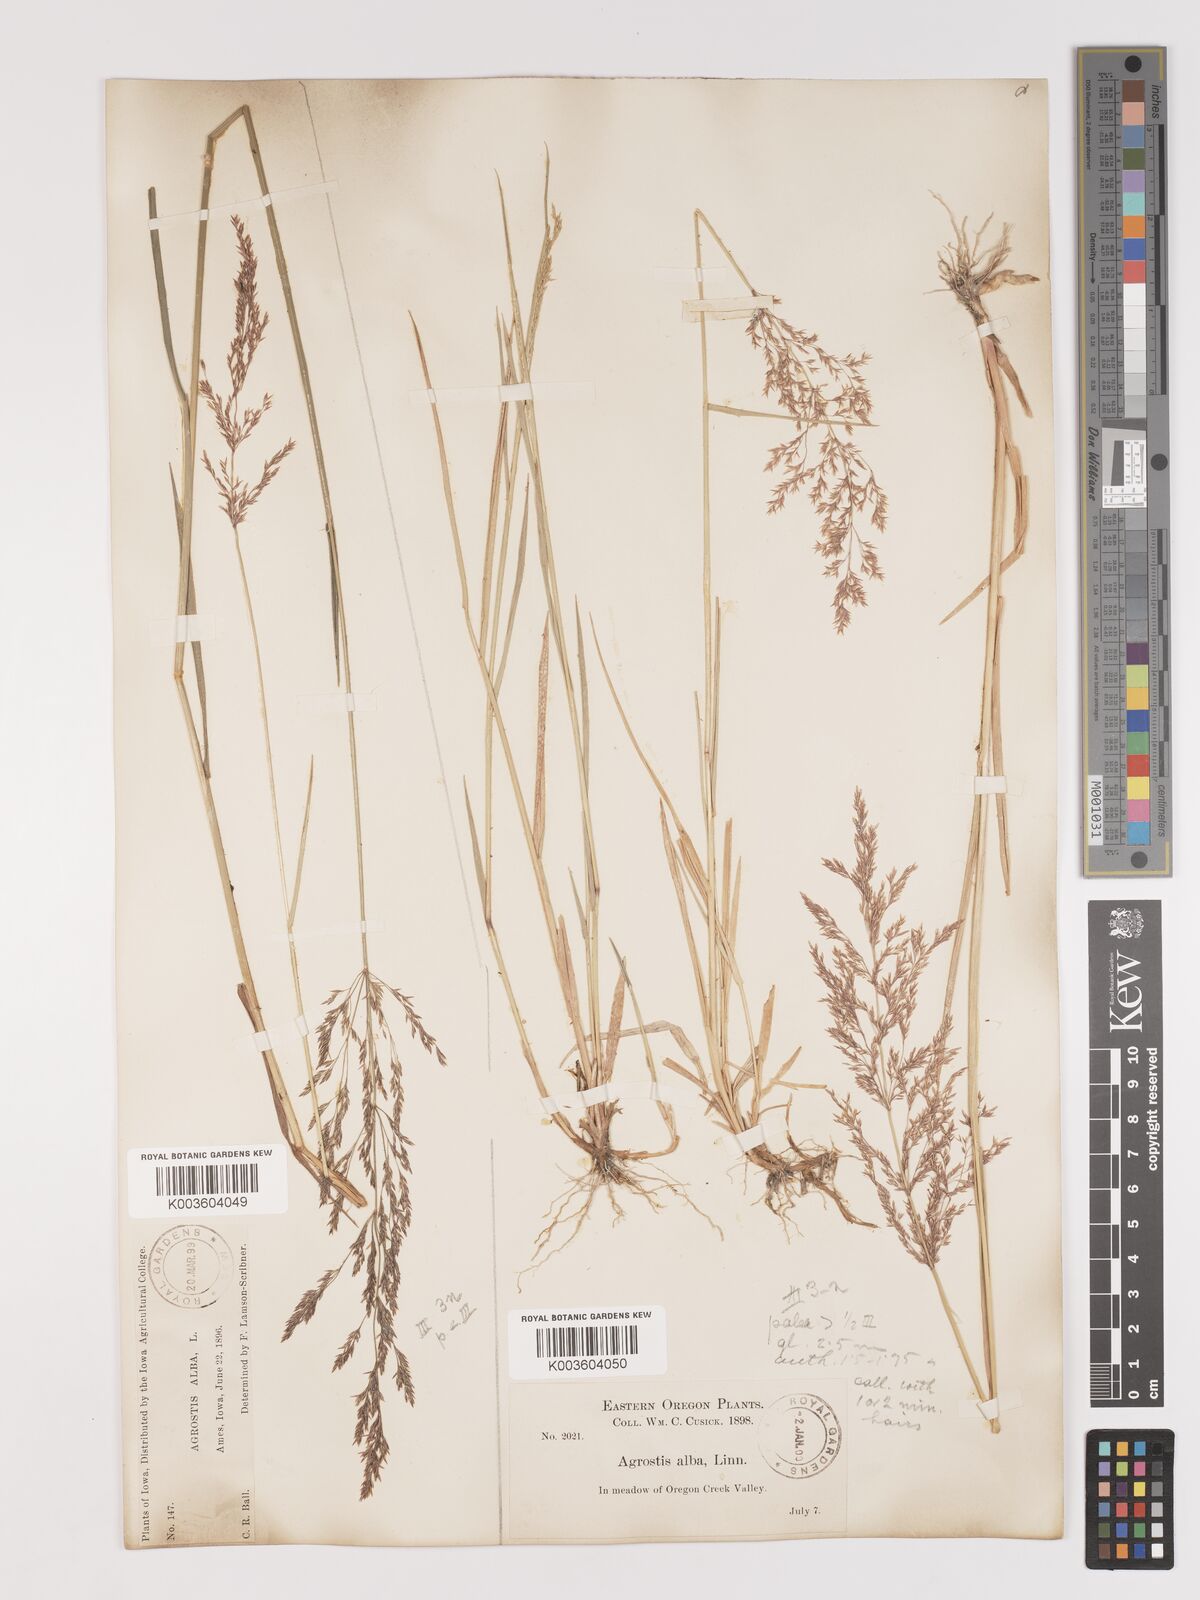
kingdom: Plantae
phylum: Tracheophyta
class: Liliopsida
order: Poales
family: Poaceae
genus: Agrostis
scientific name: Agrostis gigantea
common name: Black bent
